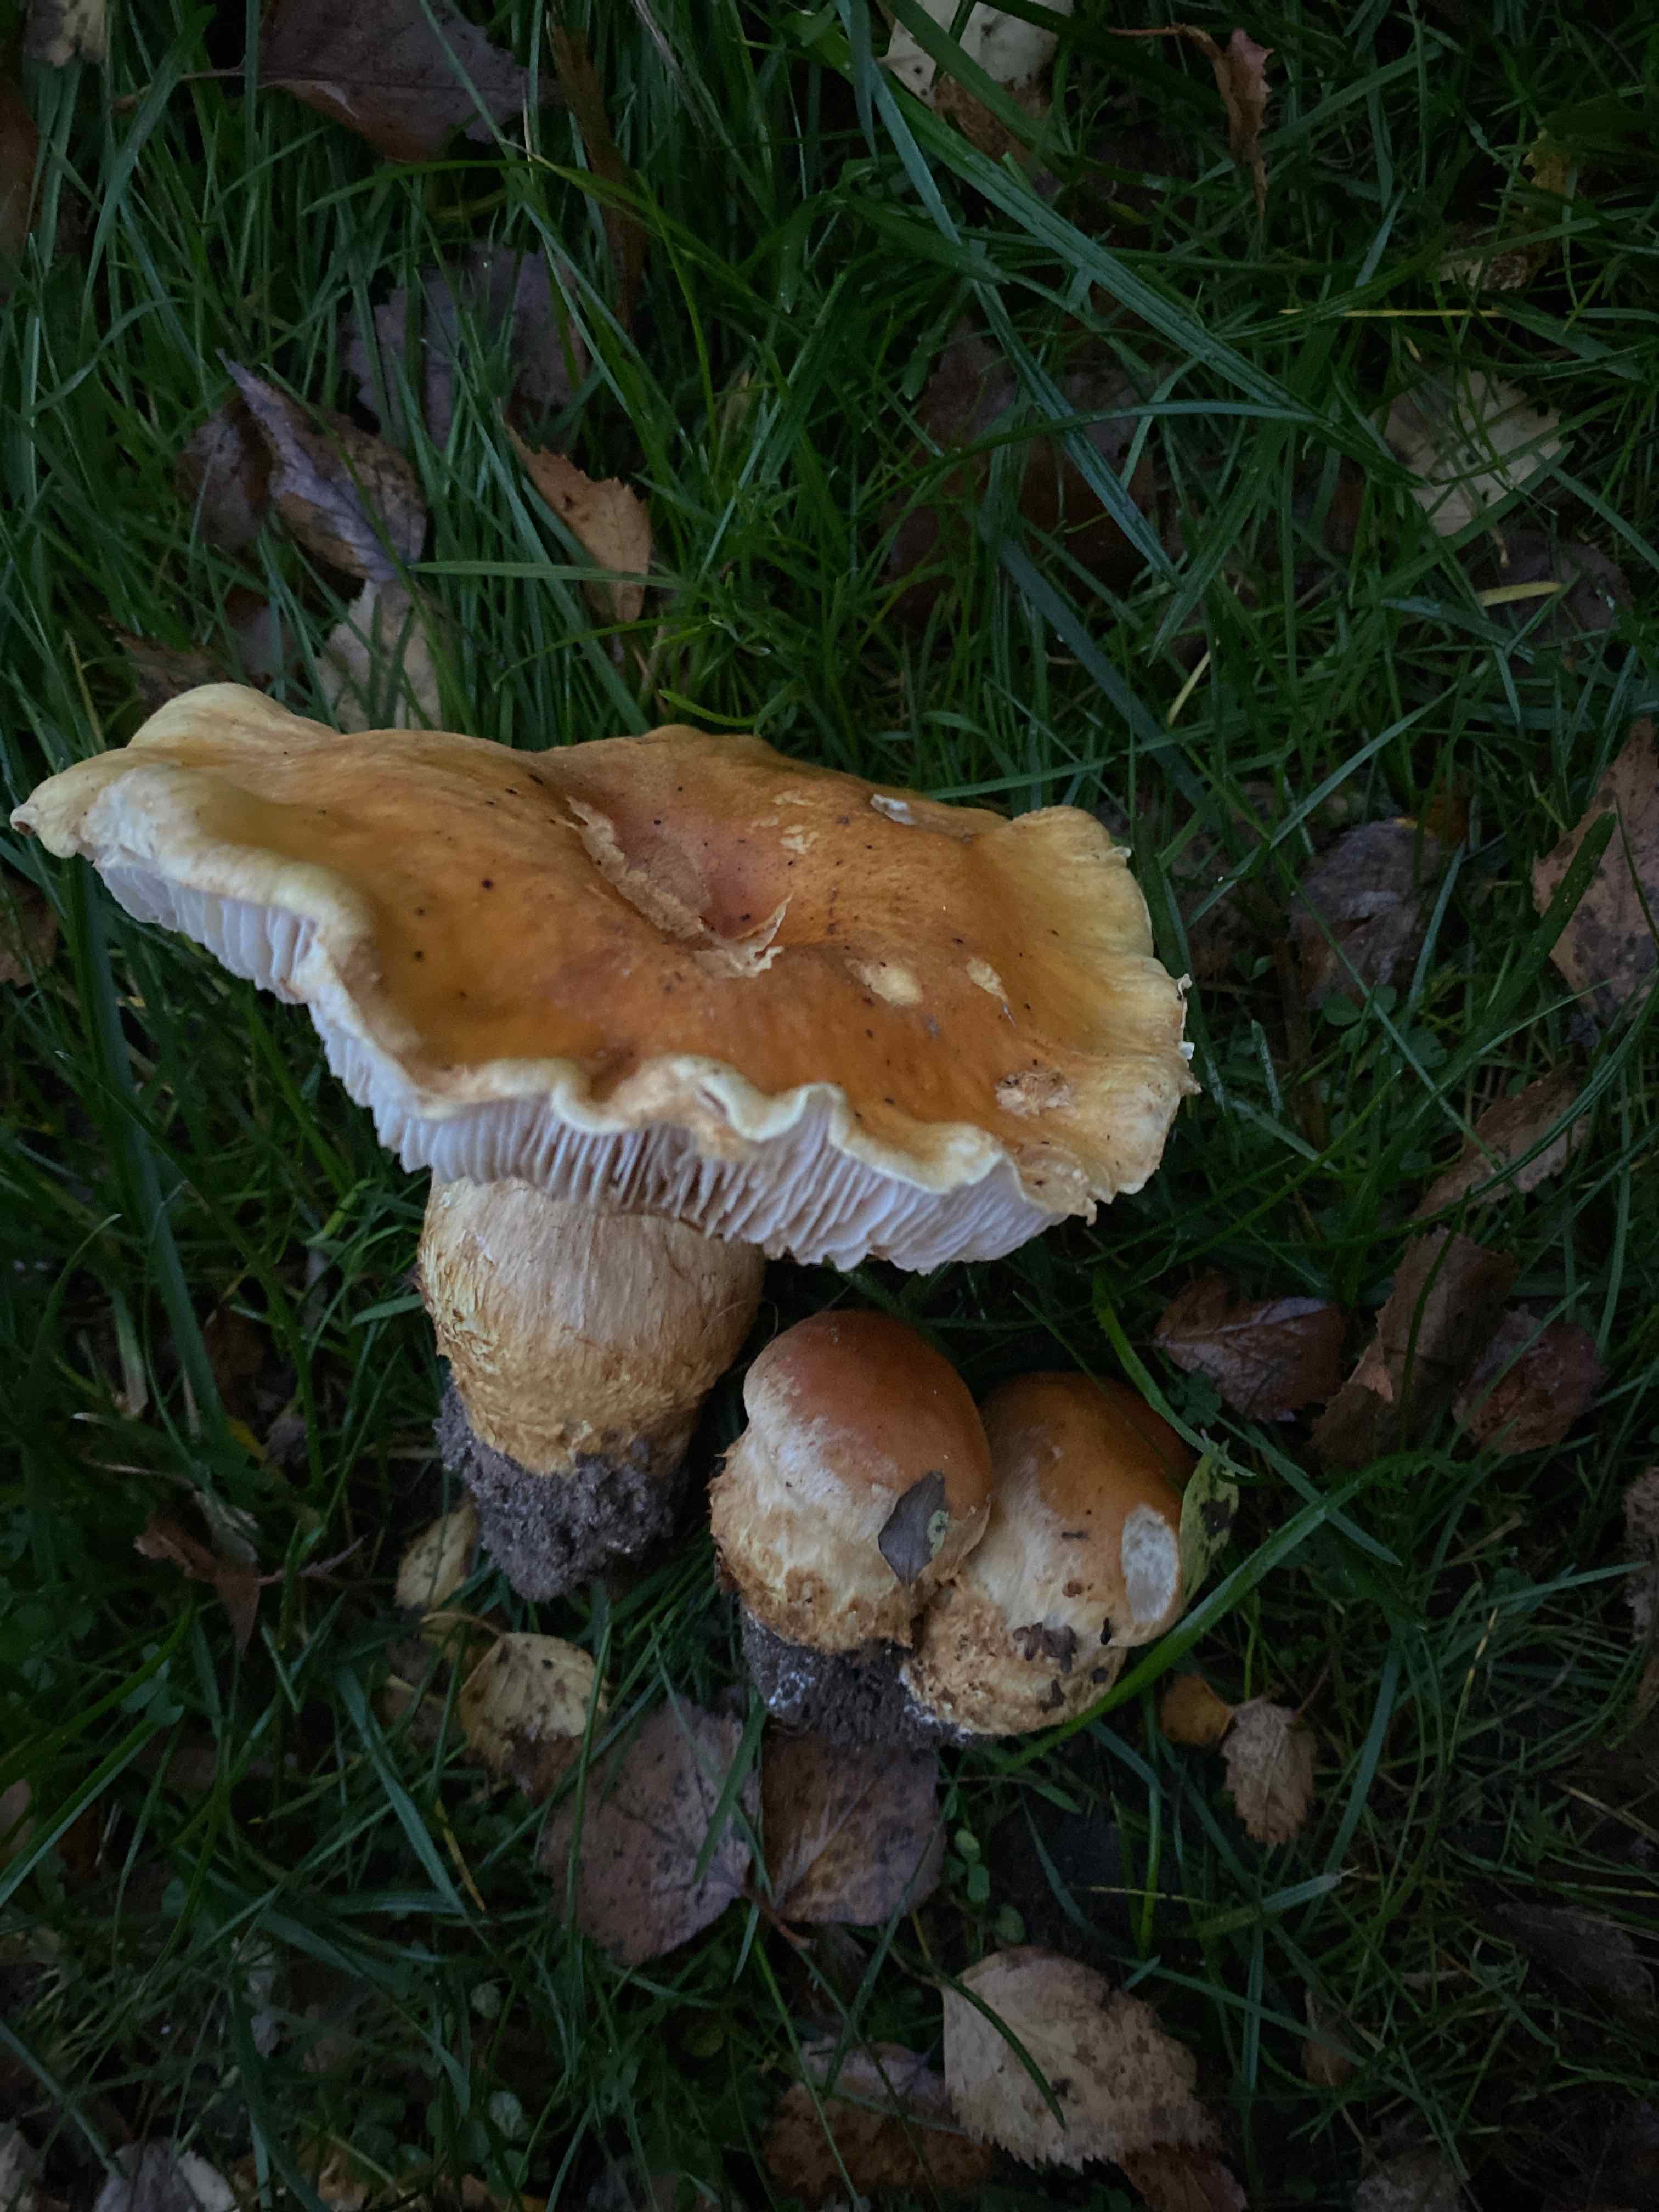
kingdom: Fungi
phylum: Basidiomycota
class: Agaricomycetes
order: Agaricales
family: Cortinariaceae
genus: Phlegmacium
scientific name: Phlegmacium triumphans
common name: gulbæltet slørhat
